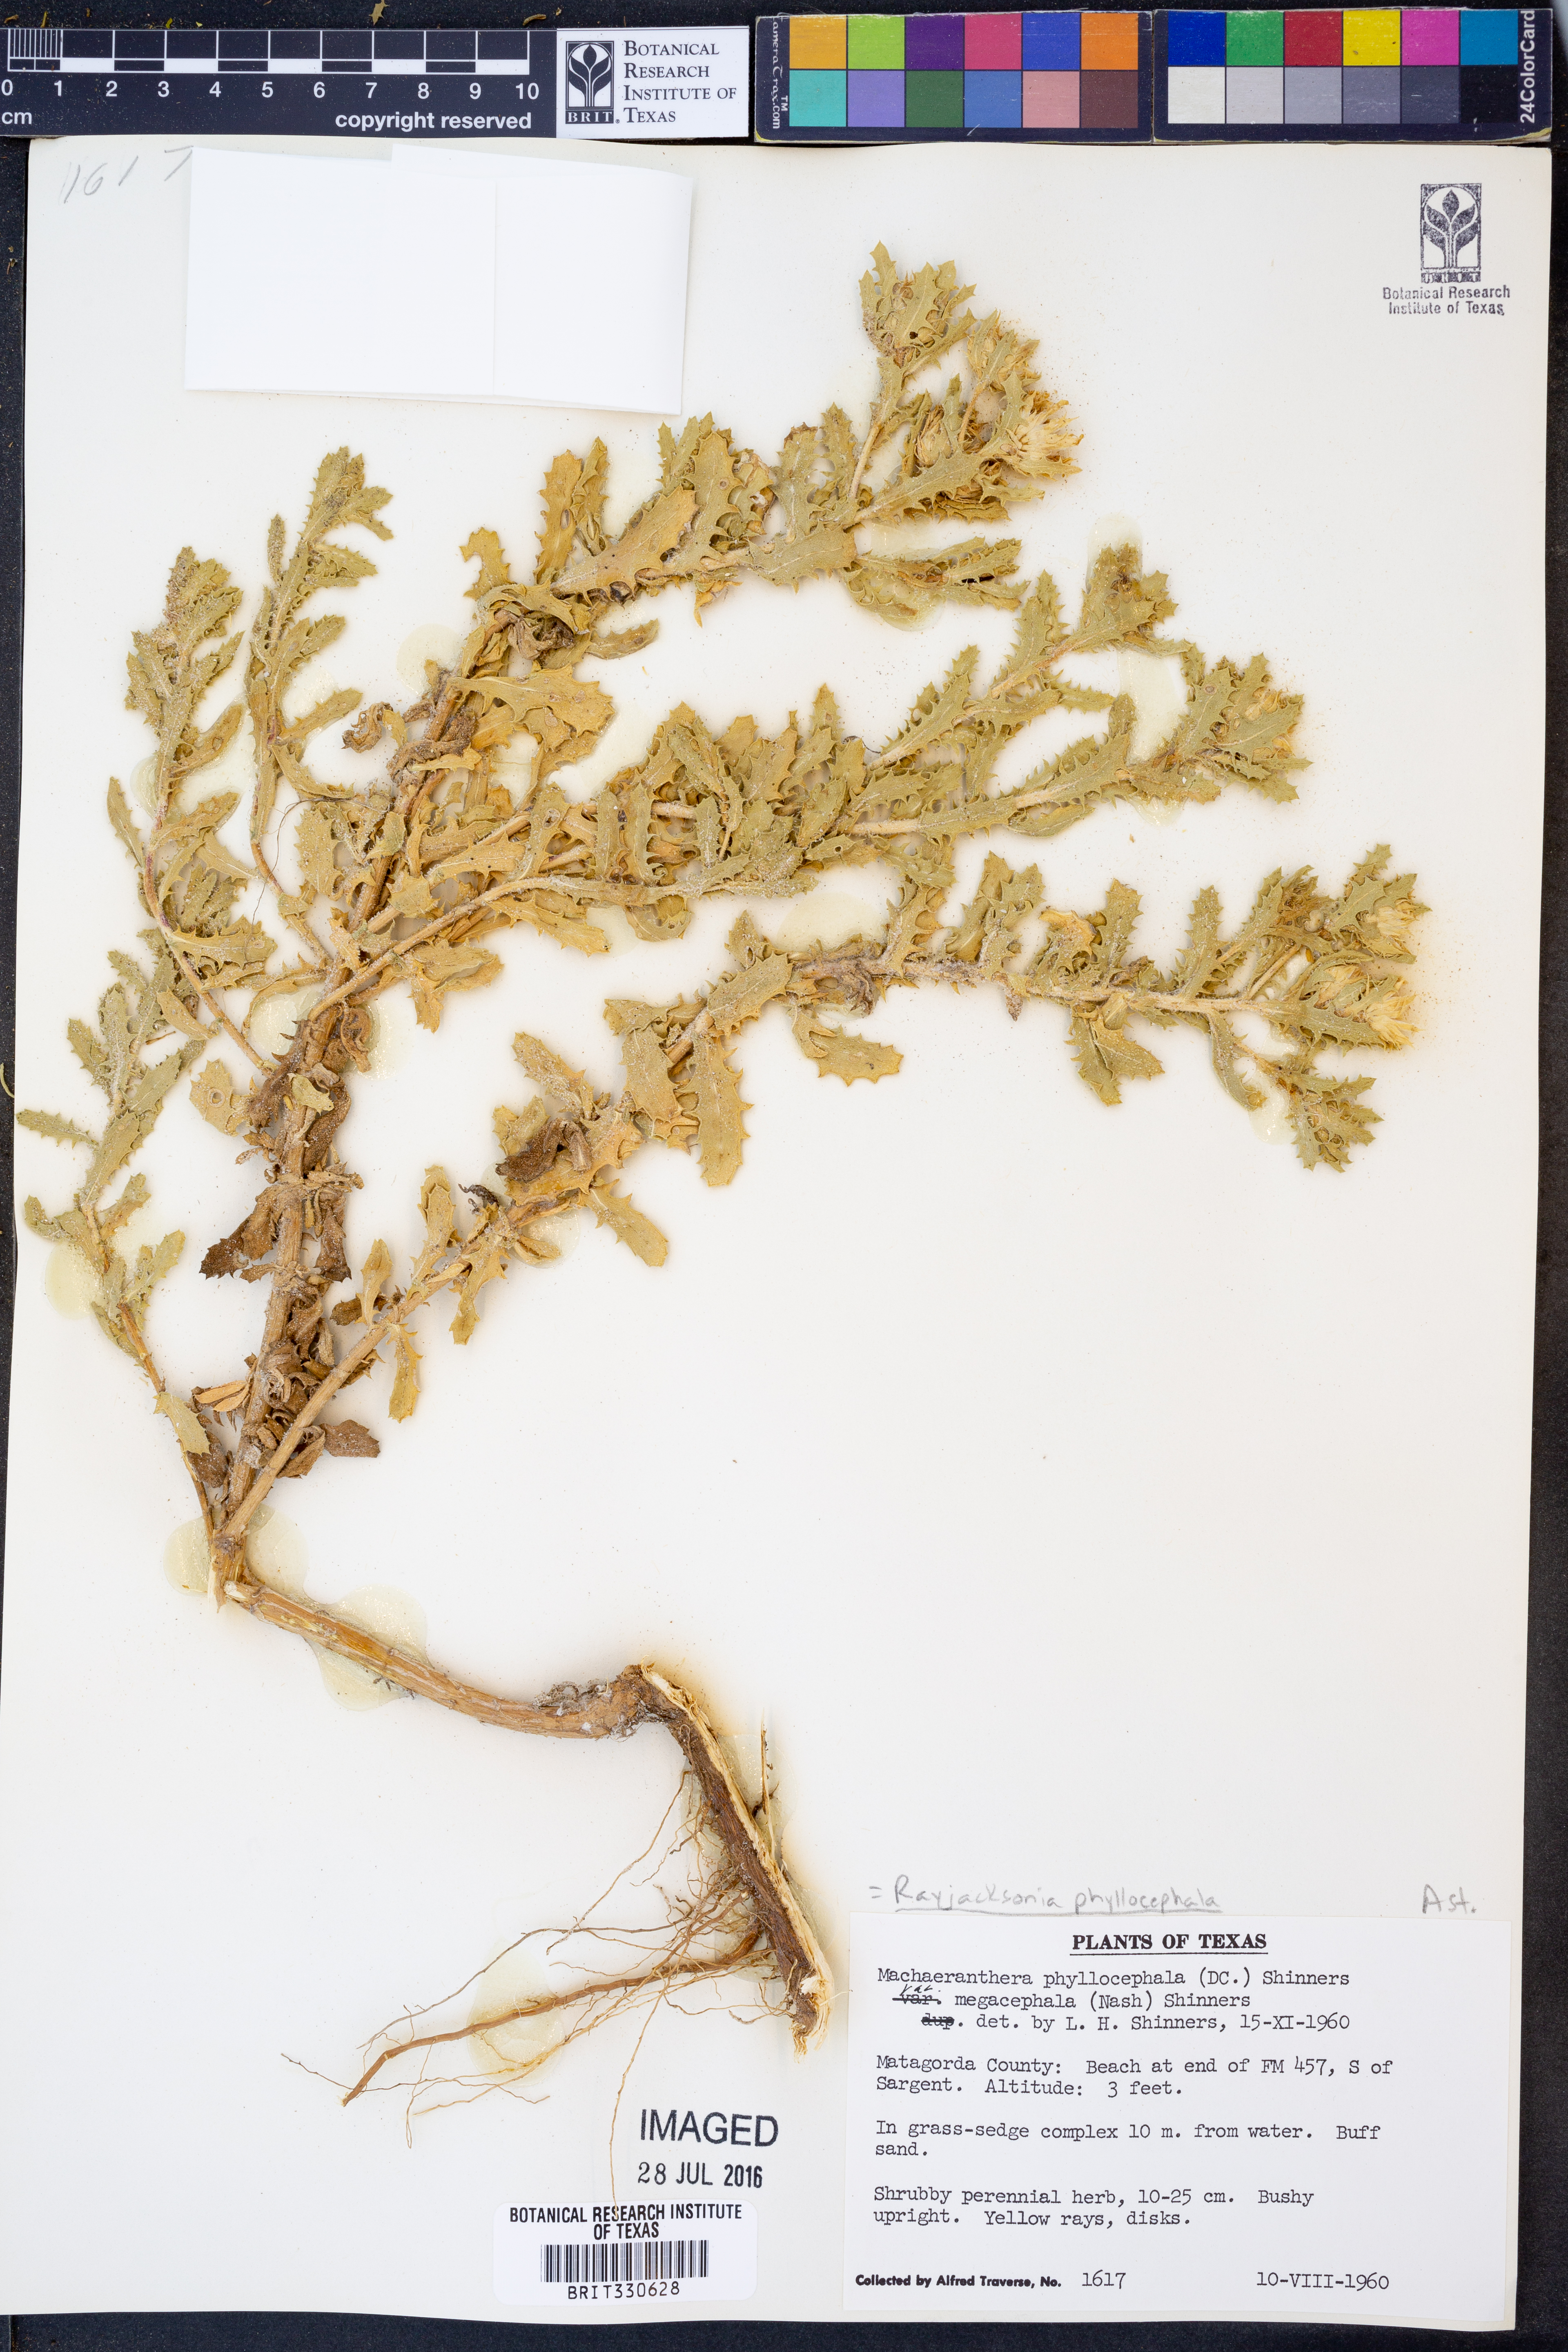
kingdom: Plantae
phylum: Tracheophyta
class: Magnoliopsida
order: Asterales
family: Asteraceae
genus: Rayjacksonia
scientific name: Rayjacksonia phyllocephala
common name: Gulf coast camphor daisy
